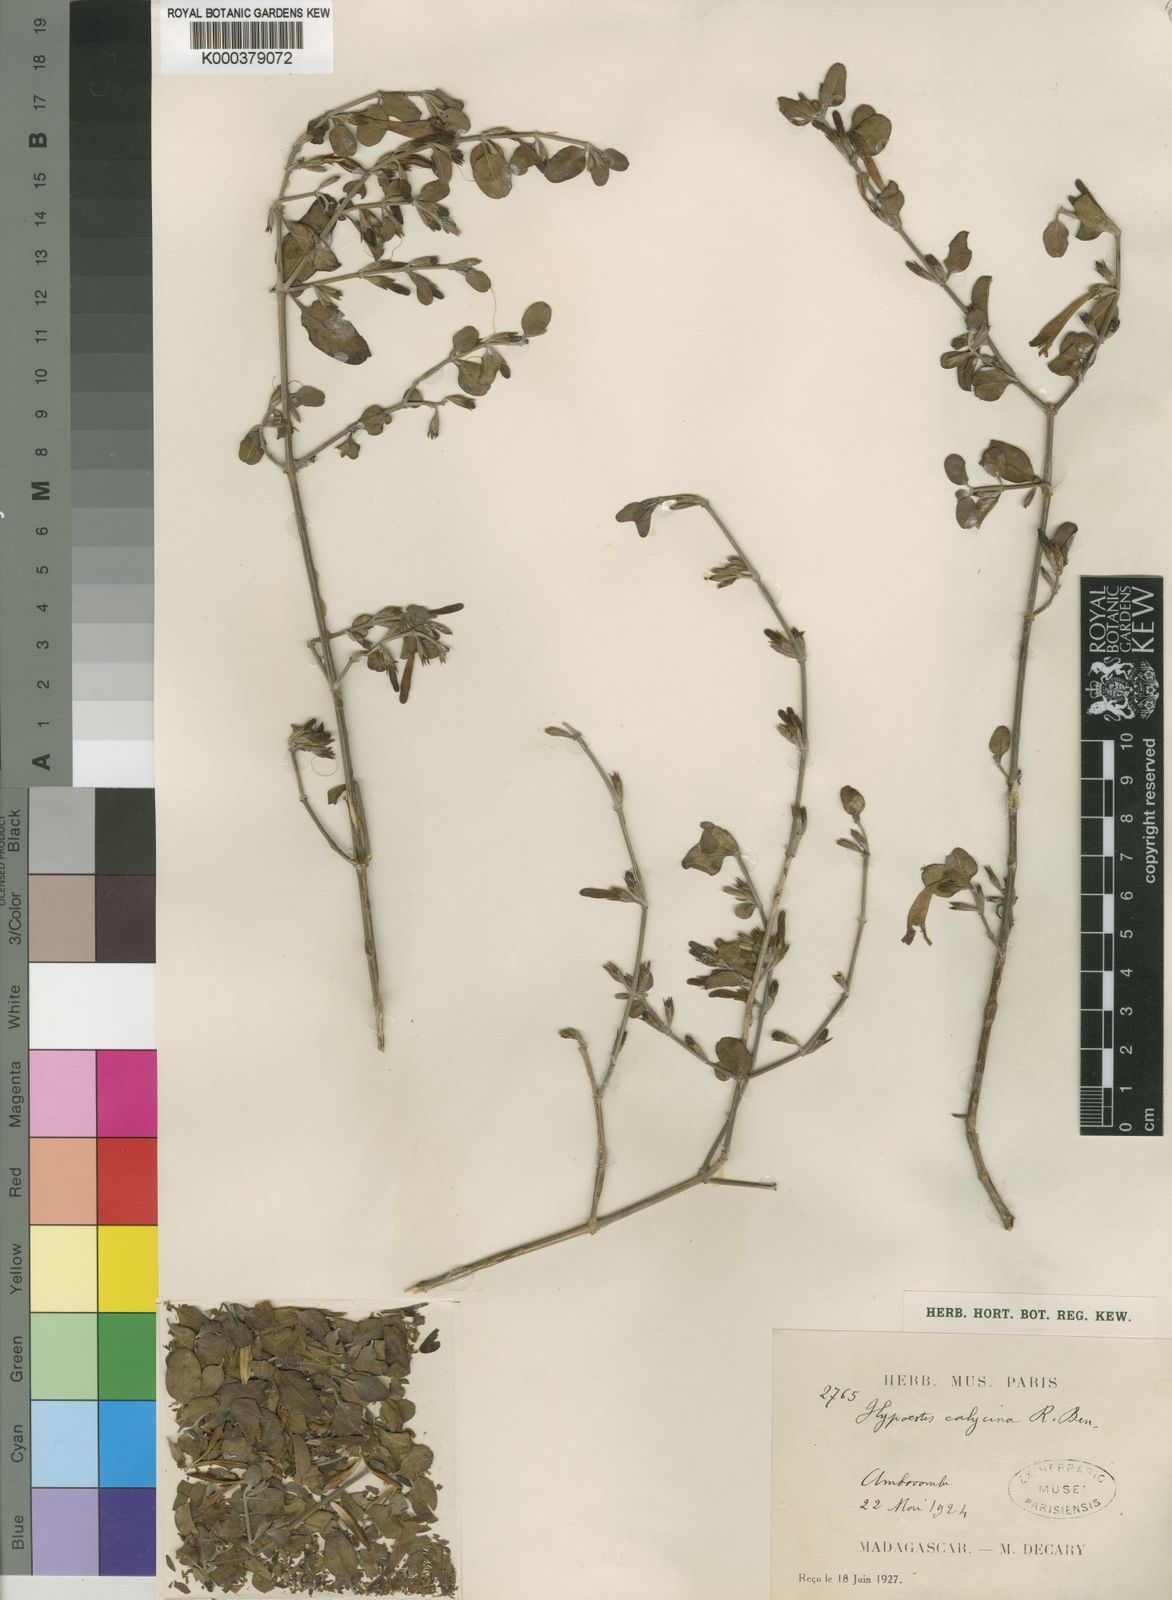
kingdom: Plantae
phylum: Tracheophyta
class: Magnoliopsida
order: Lamiales
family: Acanthaceae
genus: Hypoestes
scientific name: Hypoestes calycina
